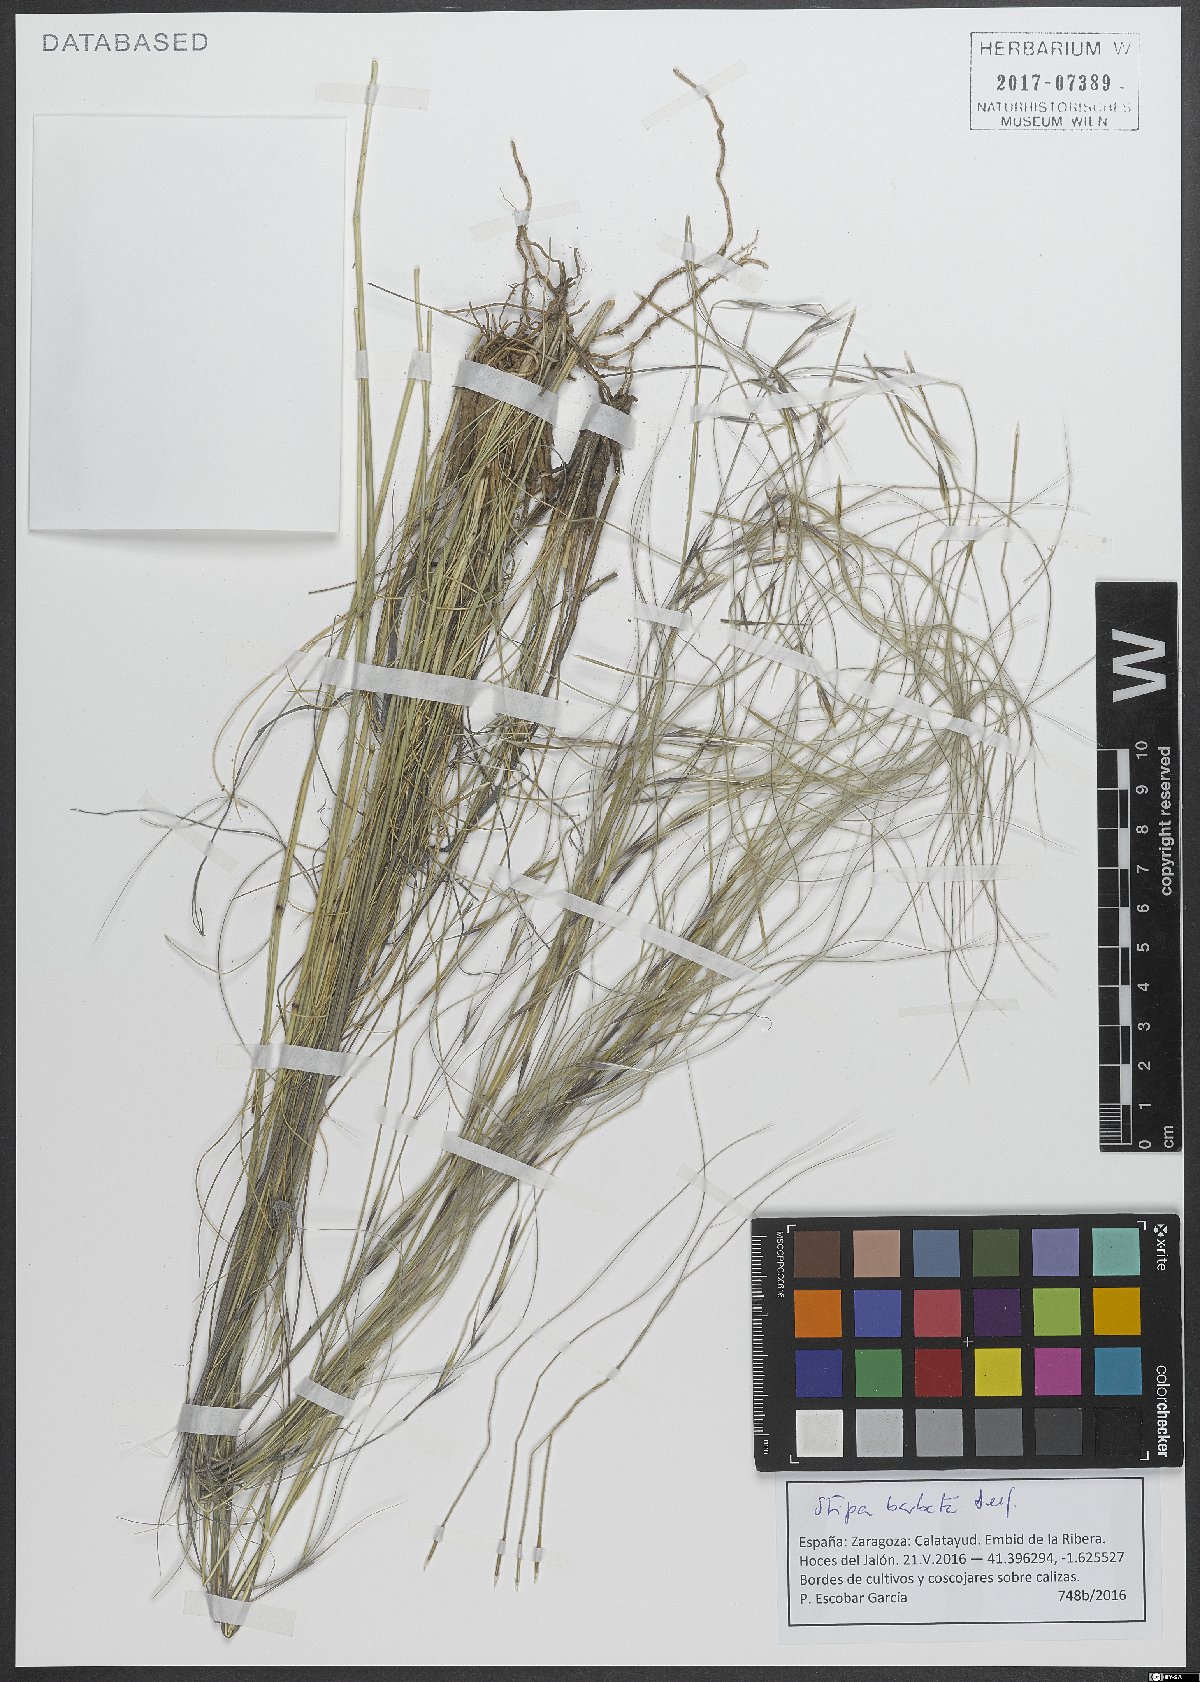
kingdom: Plantae
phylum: Tracheophyta
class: Liliopsida
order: Poales
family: Poaceae
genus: Stipa
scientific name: Stipa barbata
